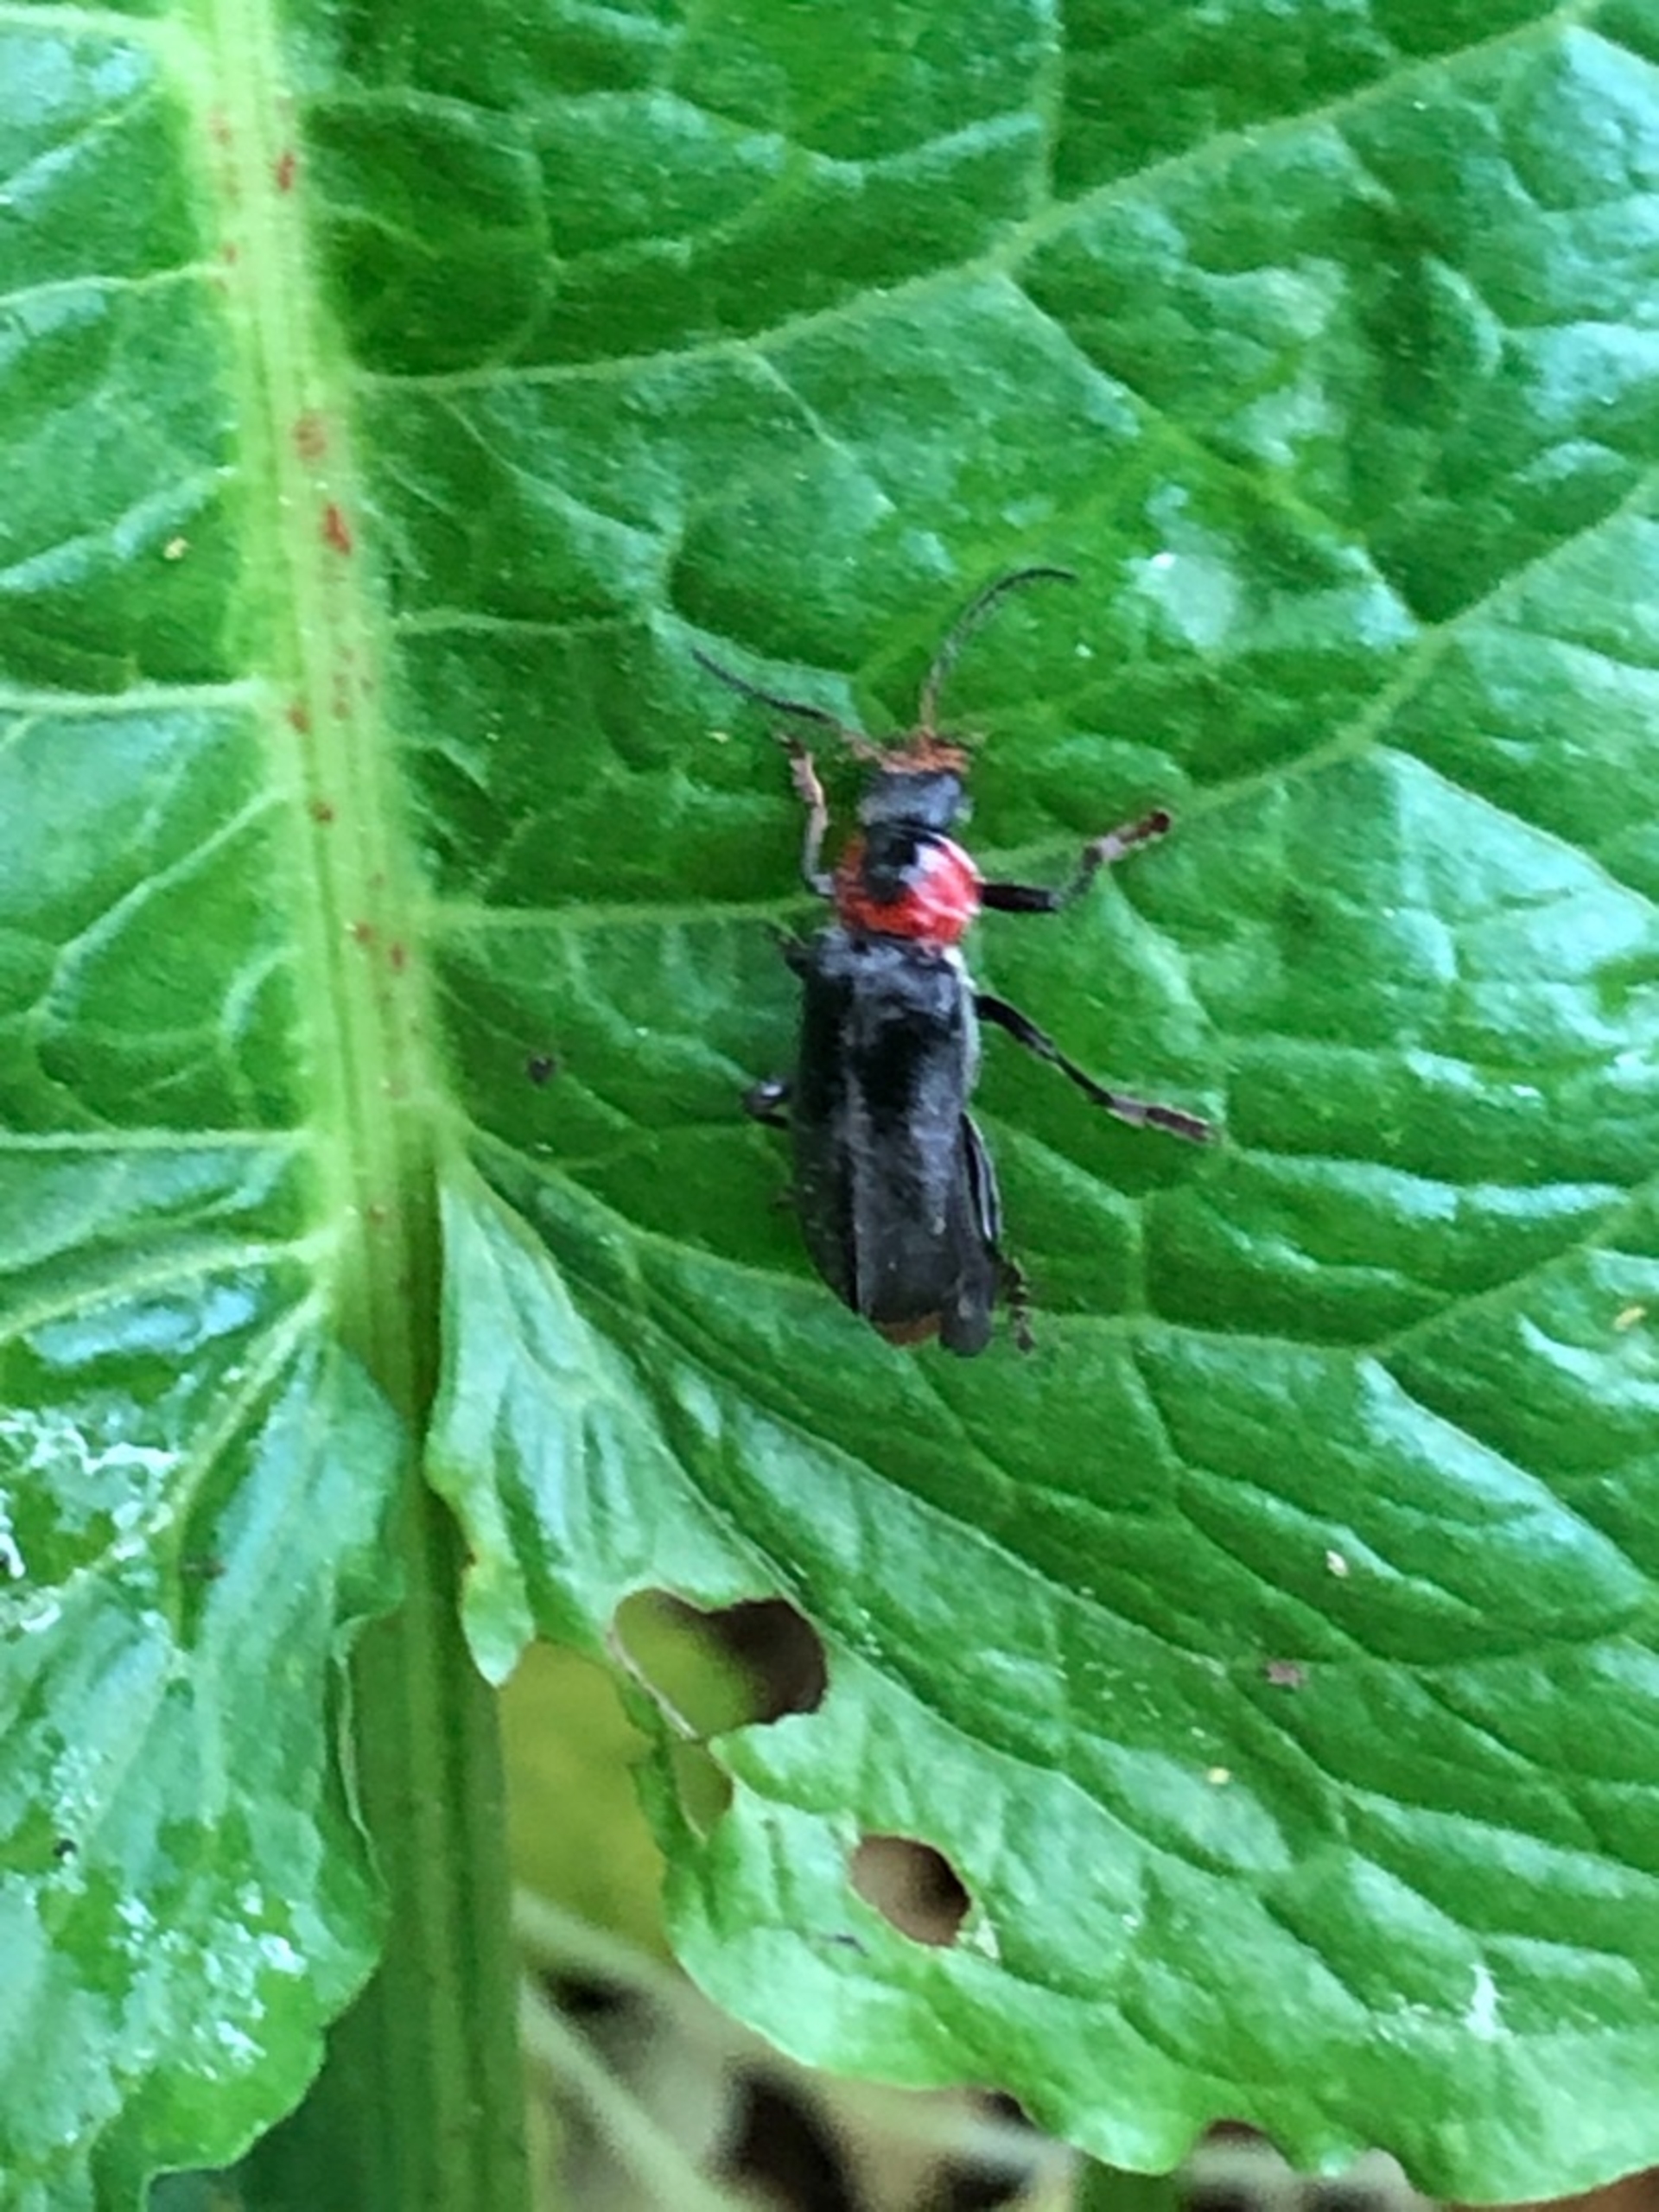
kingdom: Animalia
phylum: Arthropoda
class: Insecta
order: Coleoptera
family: Cantharidae
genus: Cantharis
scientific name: Cantharis fusca
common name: Stor blødvinge
